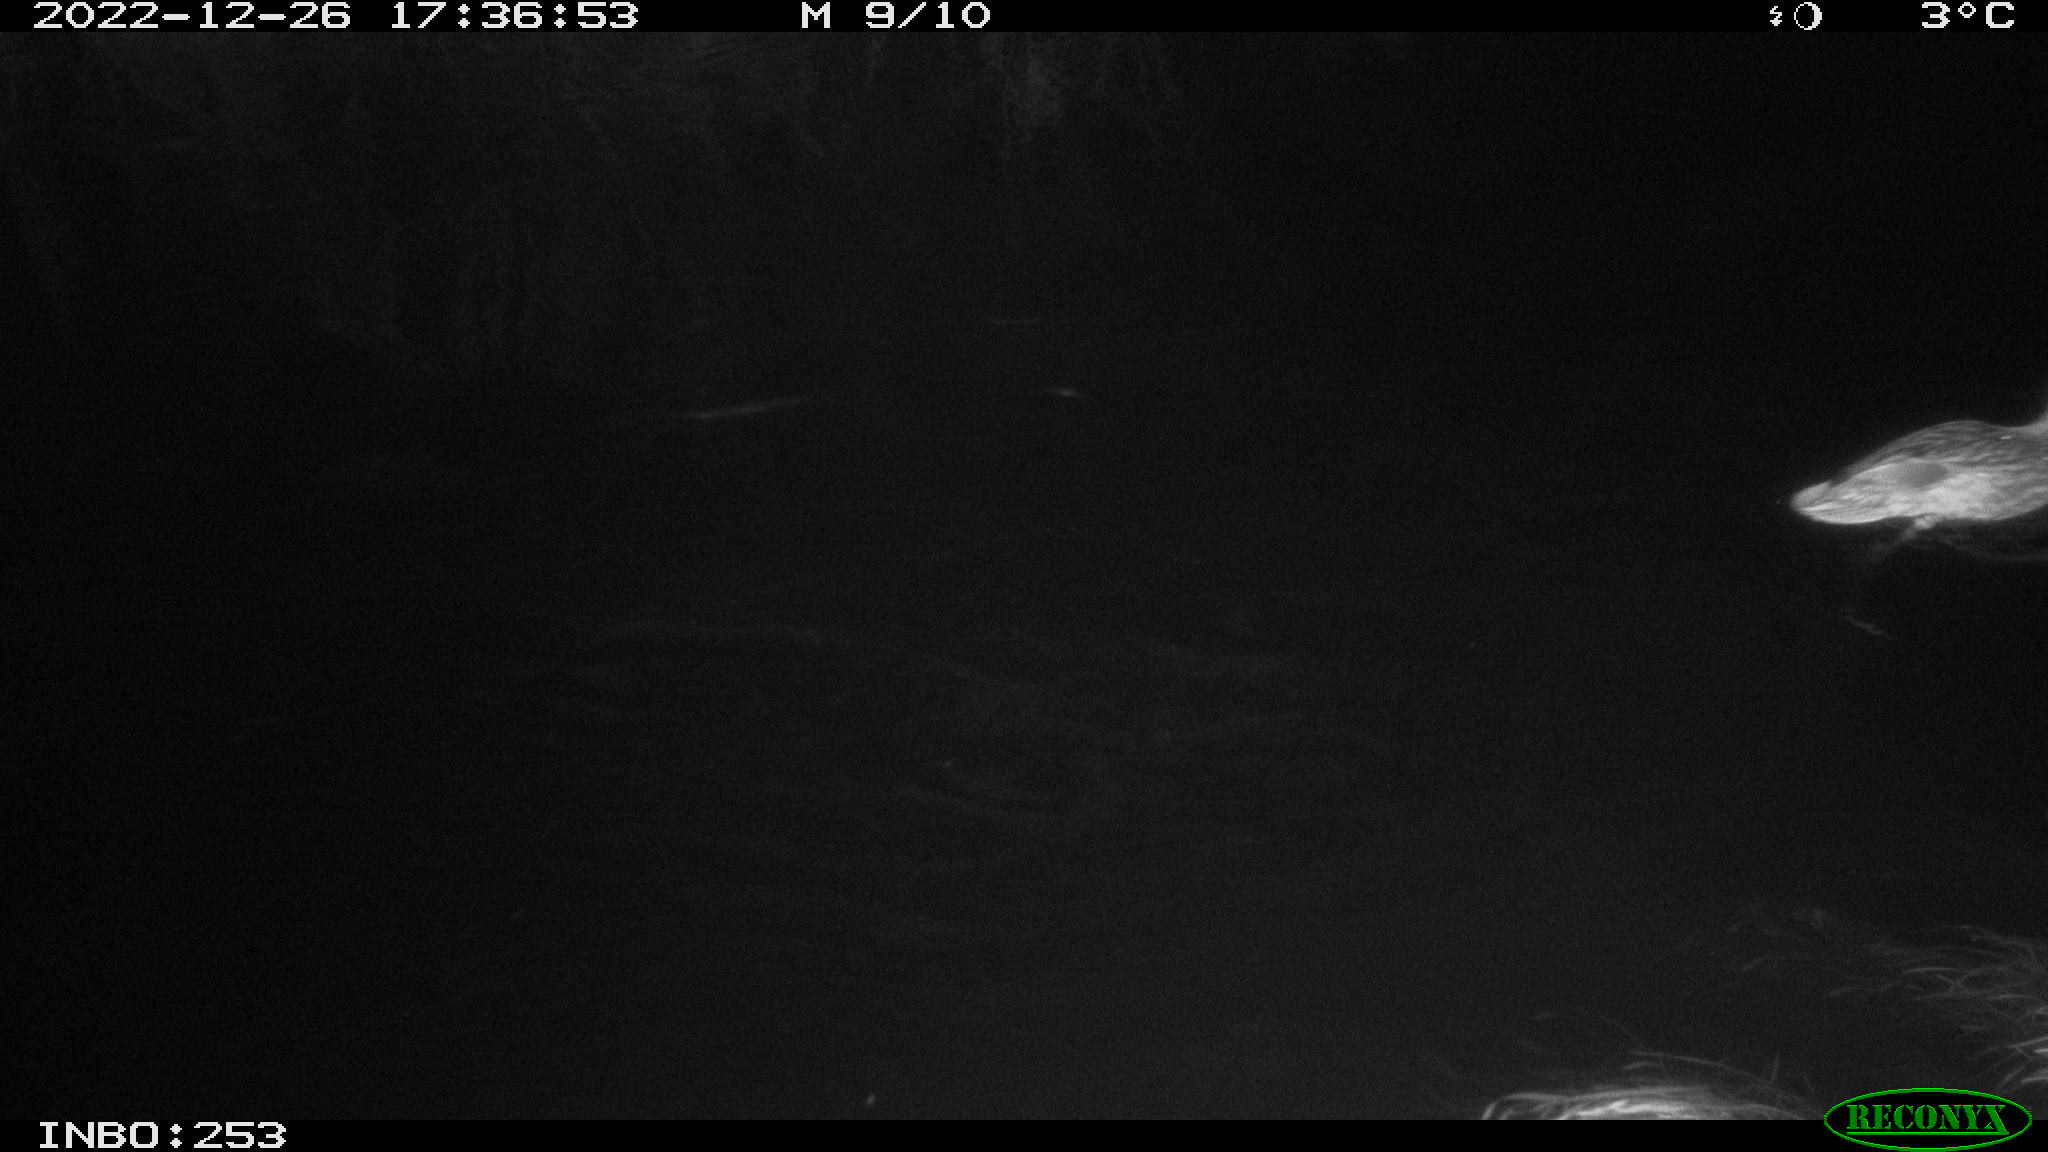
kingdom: Animalia
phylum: Chordata
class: Aves
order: Anseriformes
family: Anatidae
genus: Anas
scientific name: Anas
